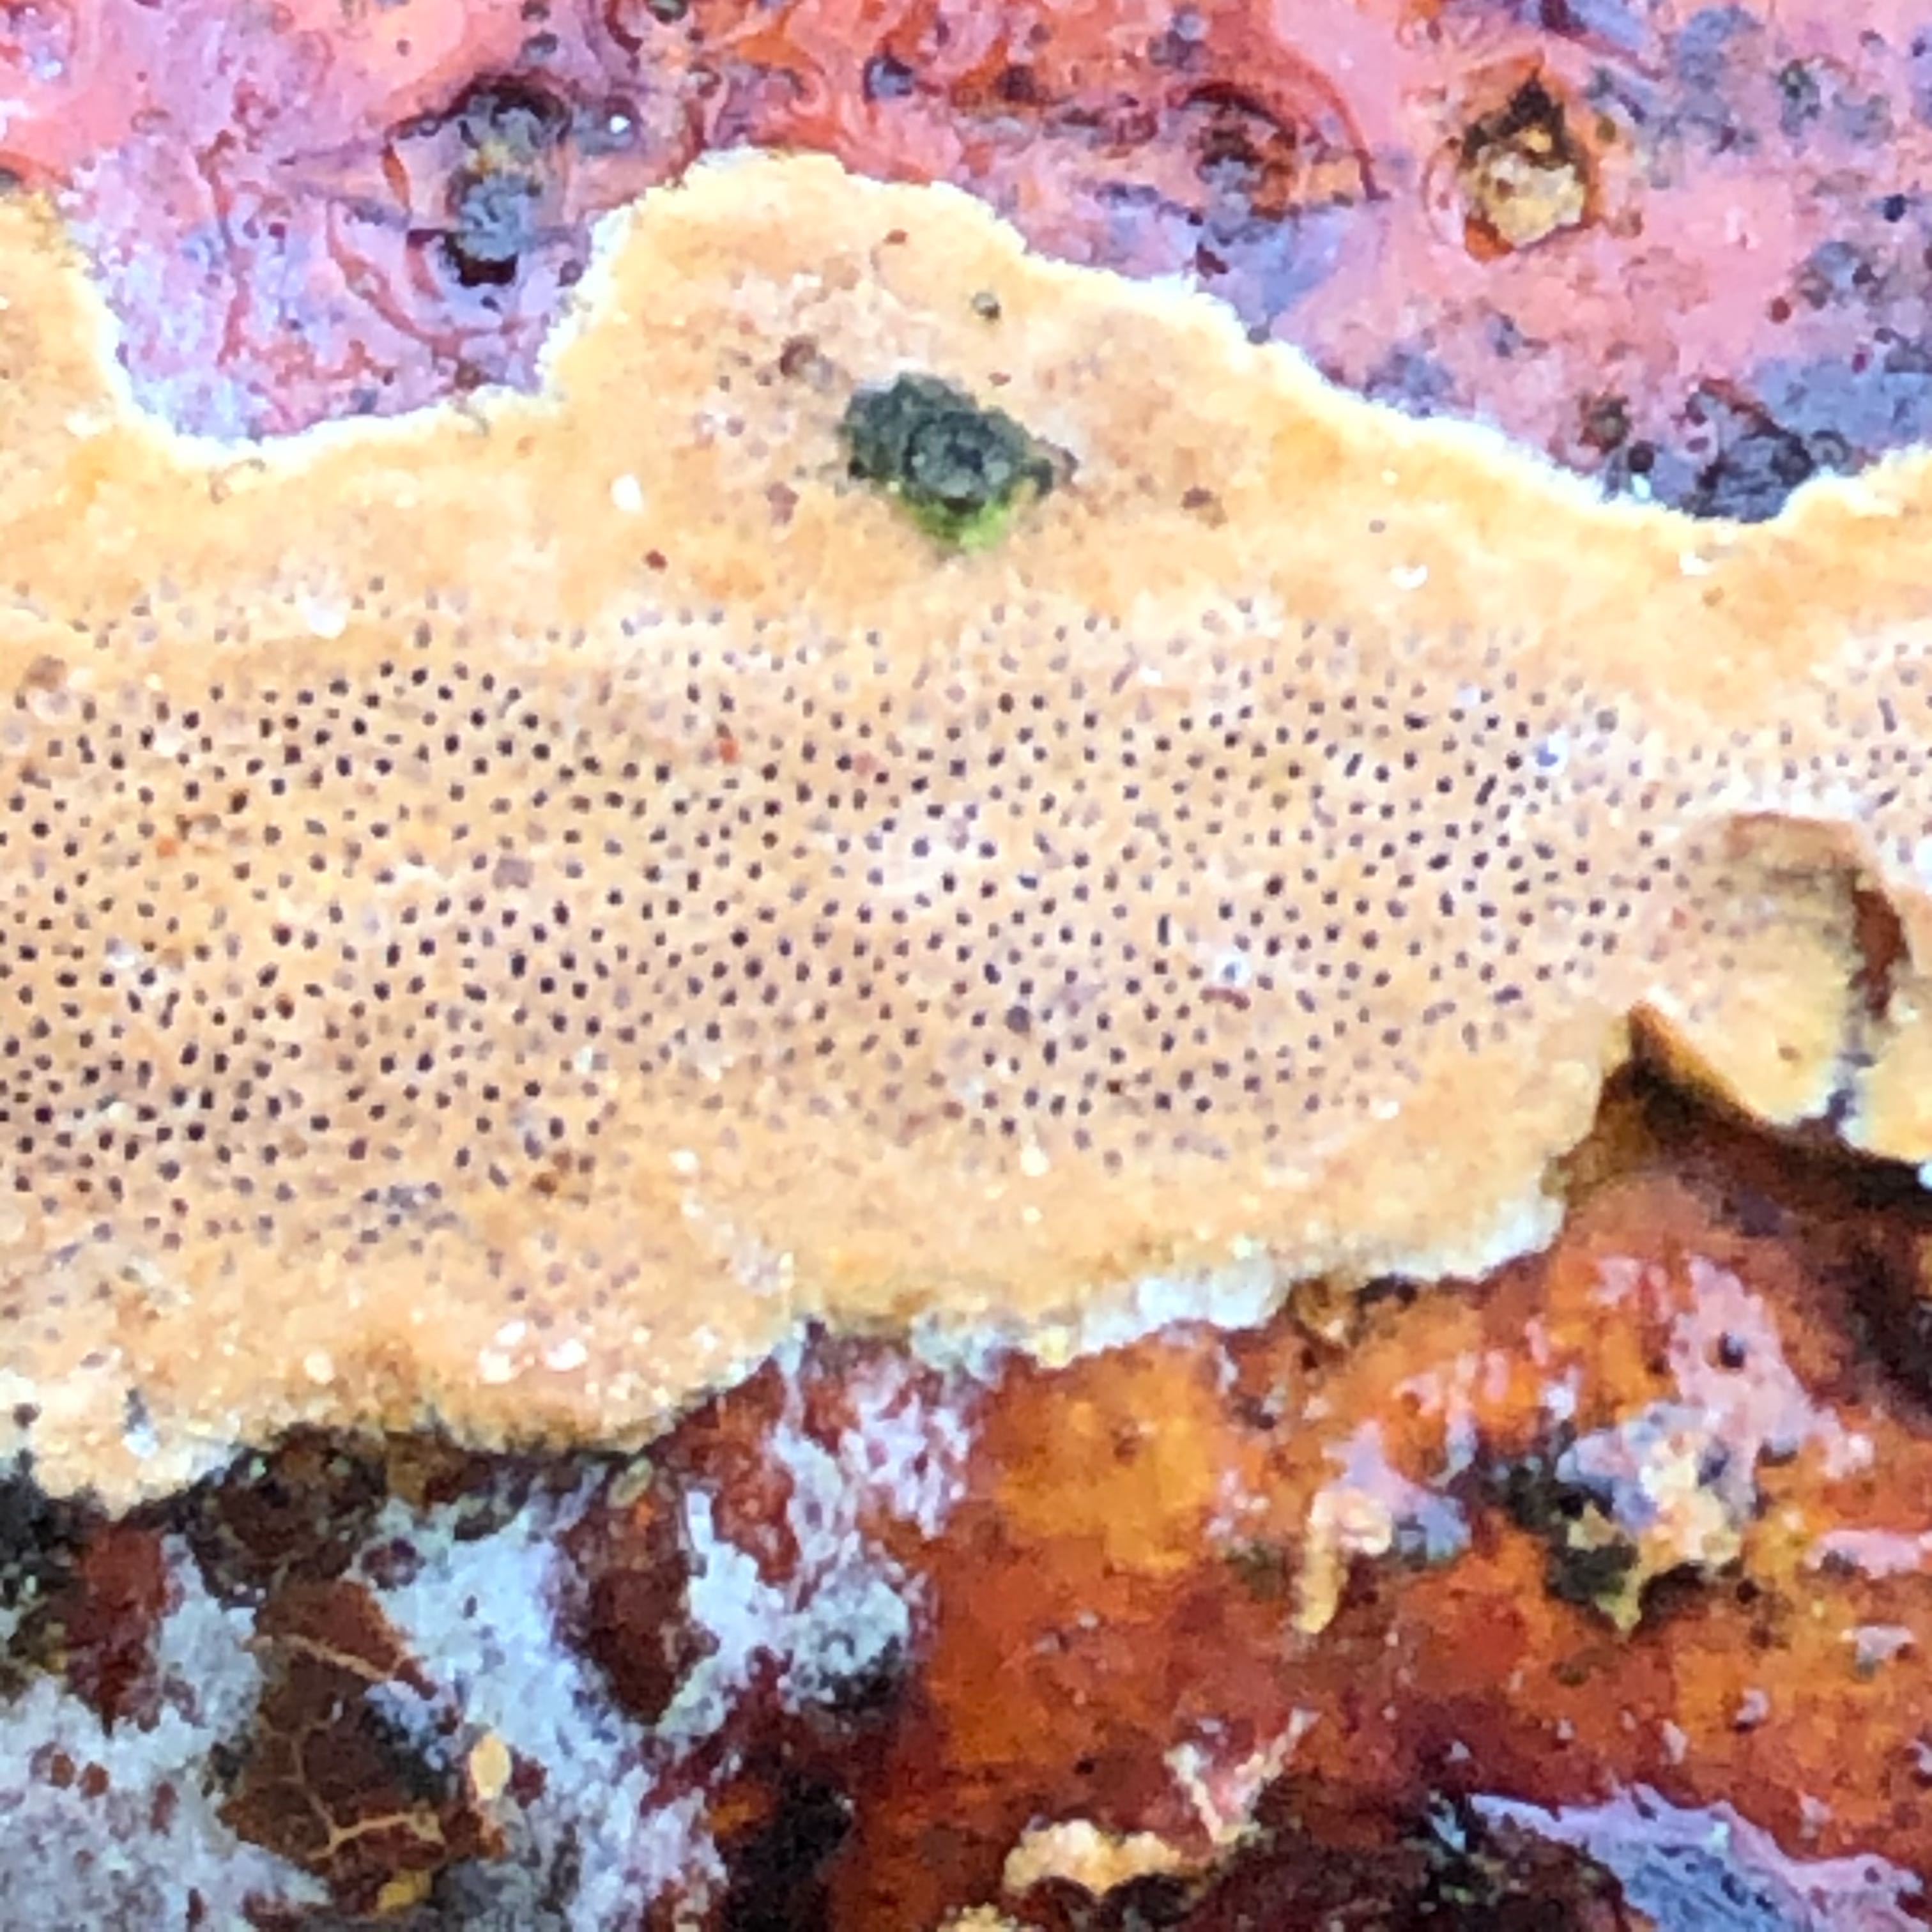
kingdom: Fungi
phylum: Basidiomycota
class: Agaricomycetes
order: Polyporales
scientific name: Polyporales
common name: poresvampordenen
